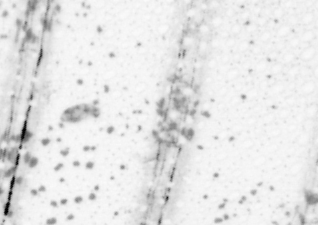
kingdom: Animalia
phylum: Chordata
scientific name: Chordata
